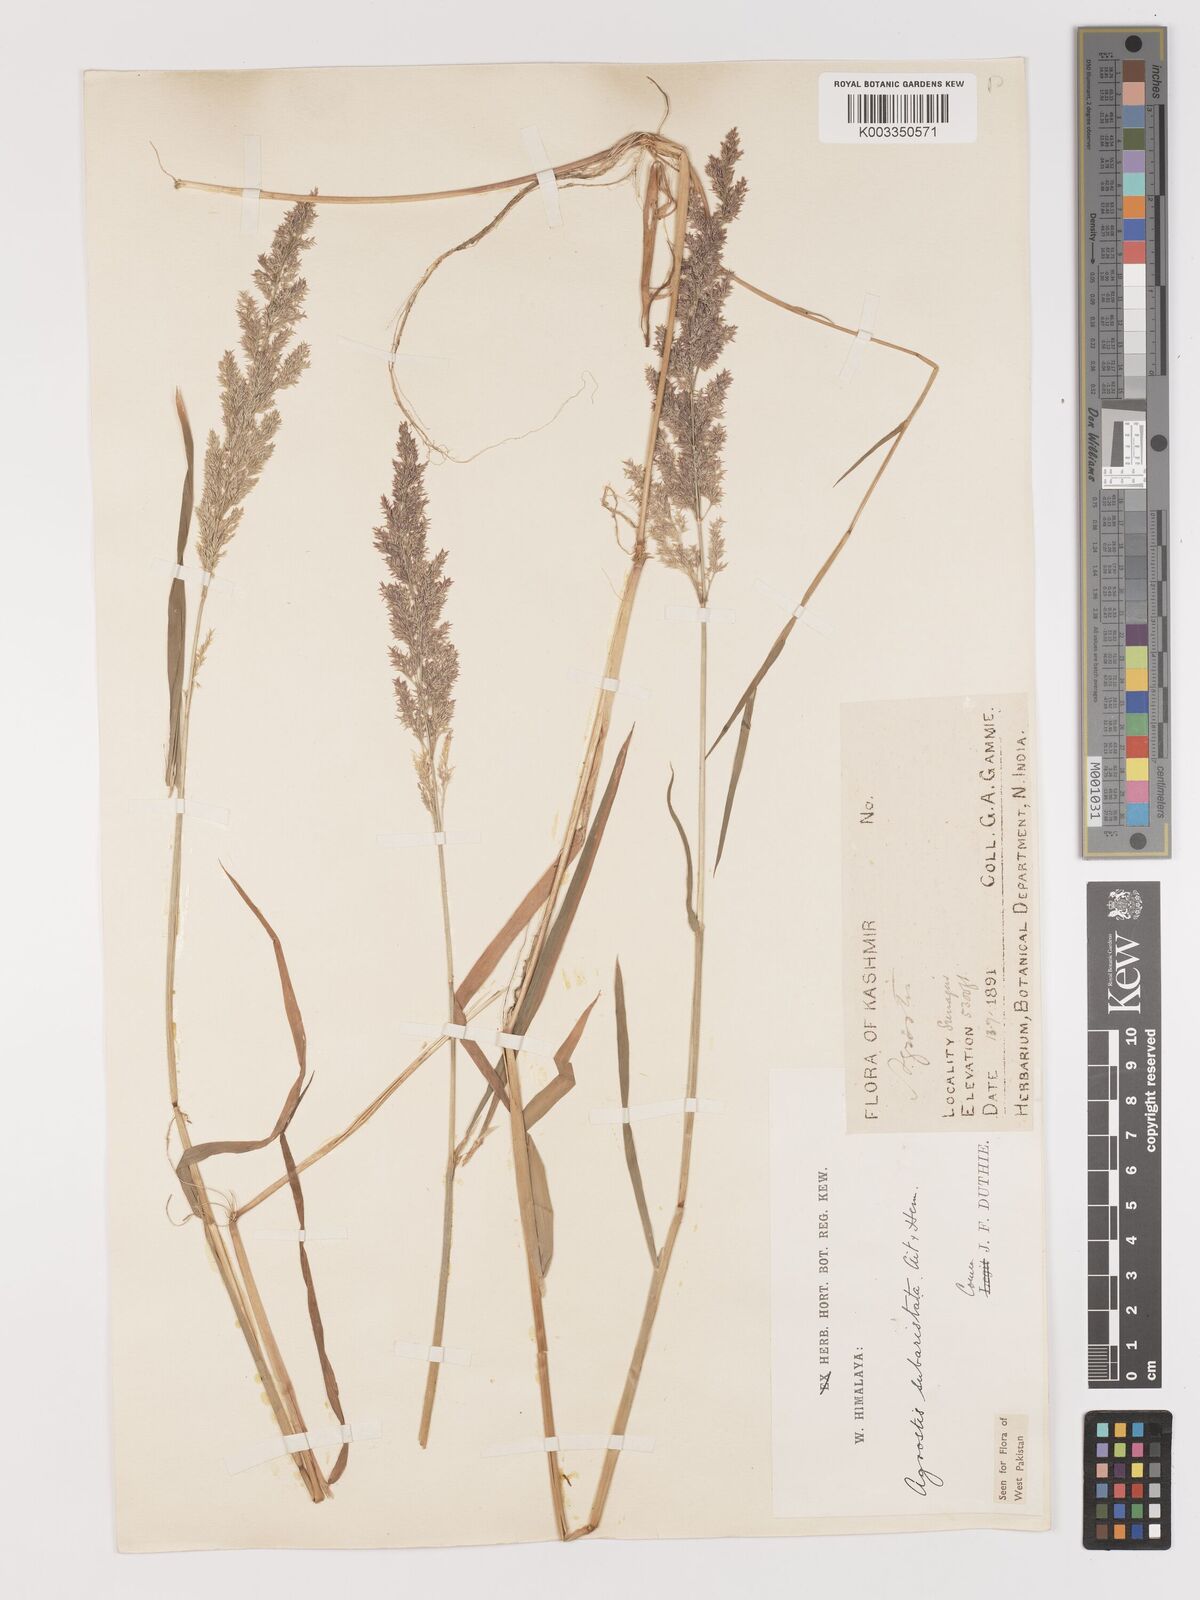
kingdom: Plantae
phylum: Tracheophyta
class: Liliopsida
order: Poales
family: Poaceae
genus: Agropogon
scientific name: Agropogon lutosus
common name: Coast agropogon
